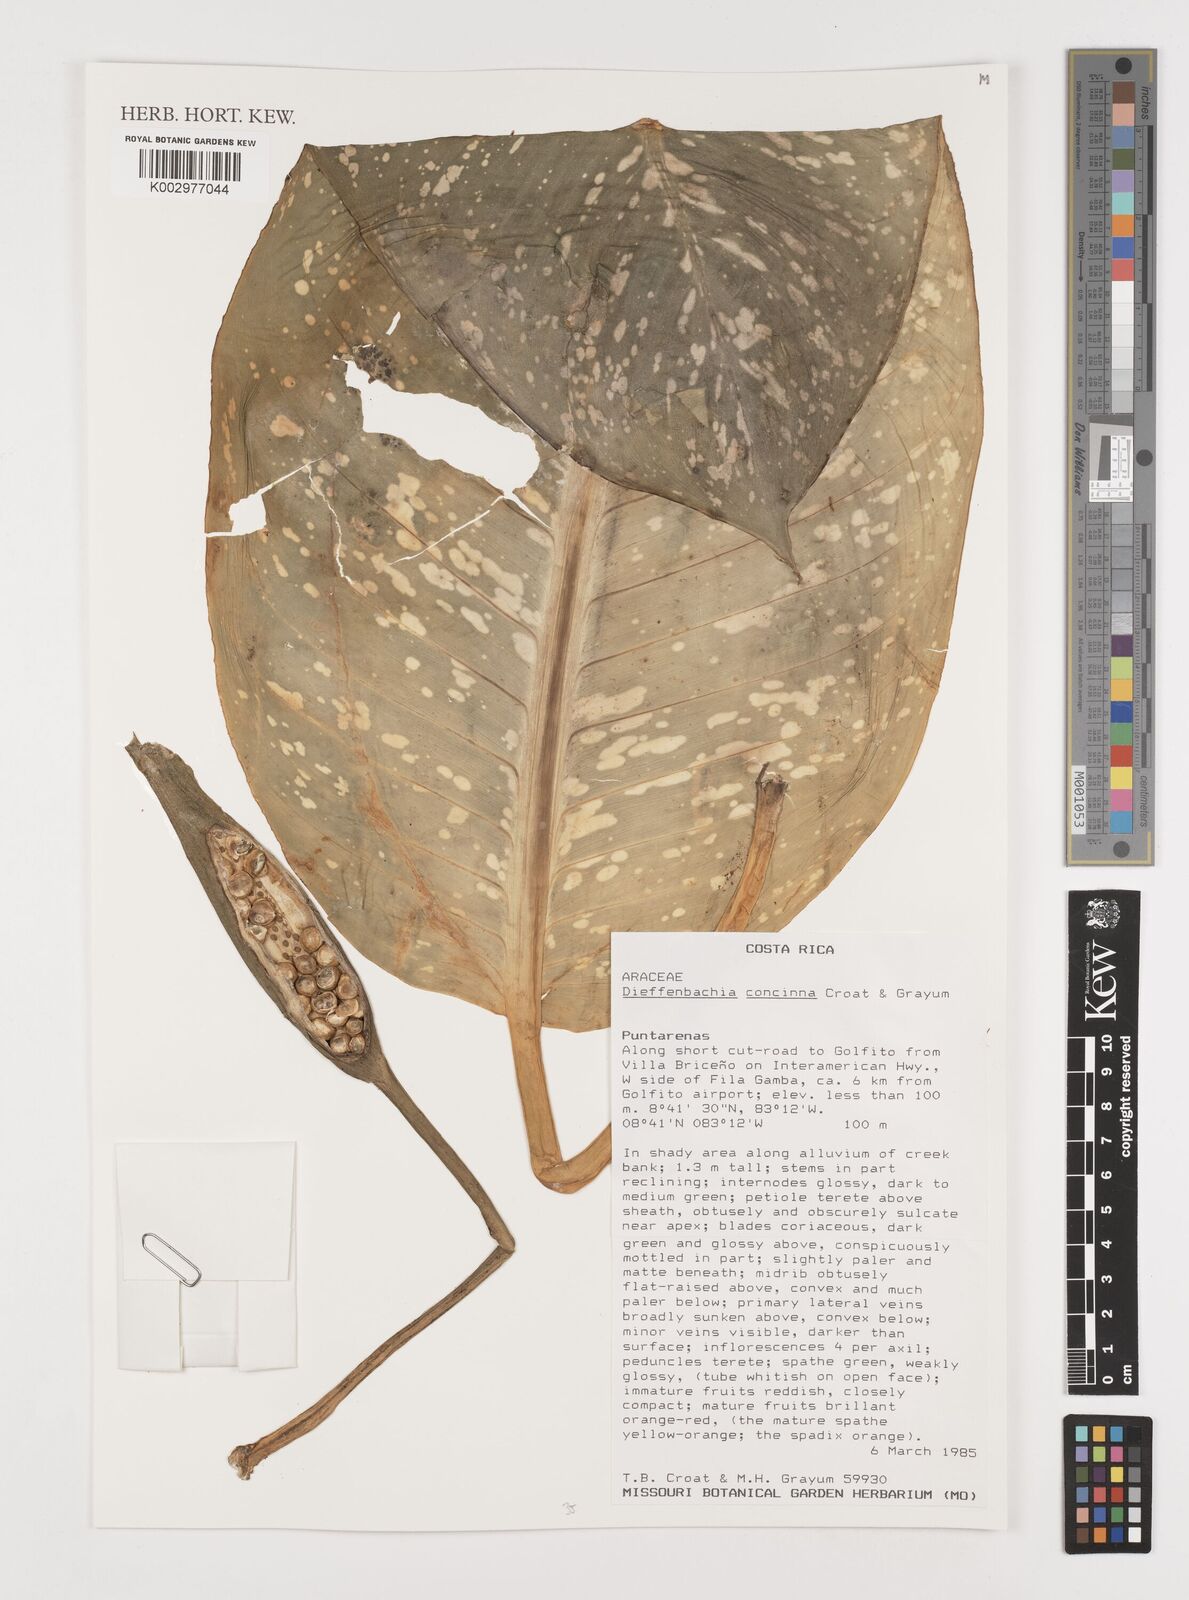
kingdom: Plantae
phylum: Tracheophyta
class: Liliopsida
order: Alismatales
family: Araceae
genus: Dieffenbachia
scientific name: Dieffenbachia concinna
